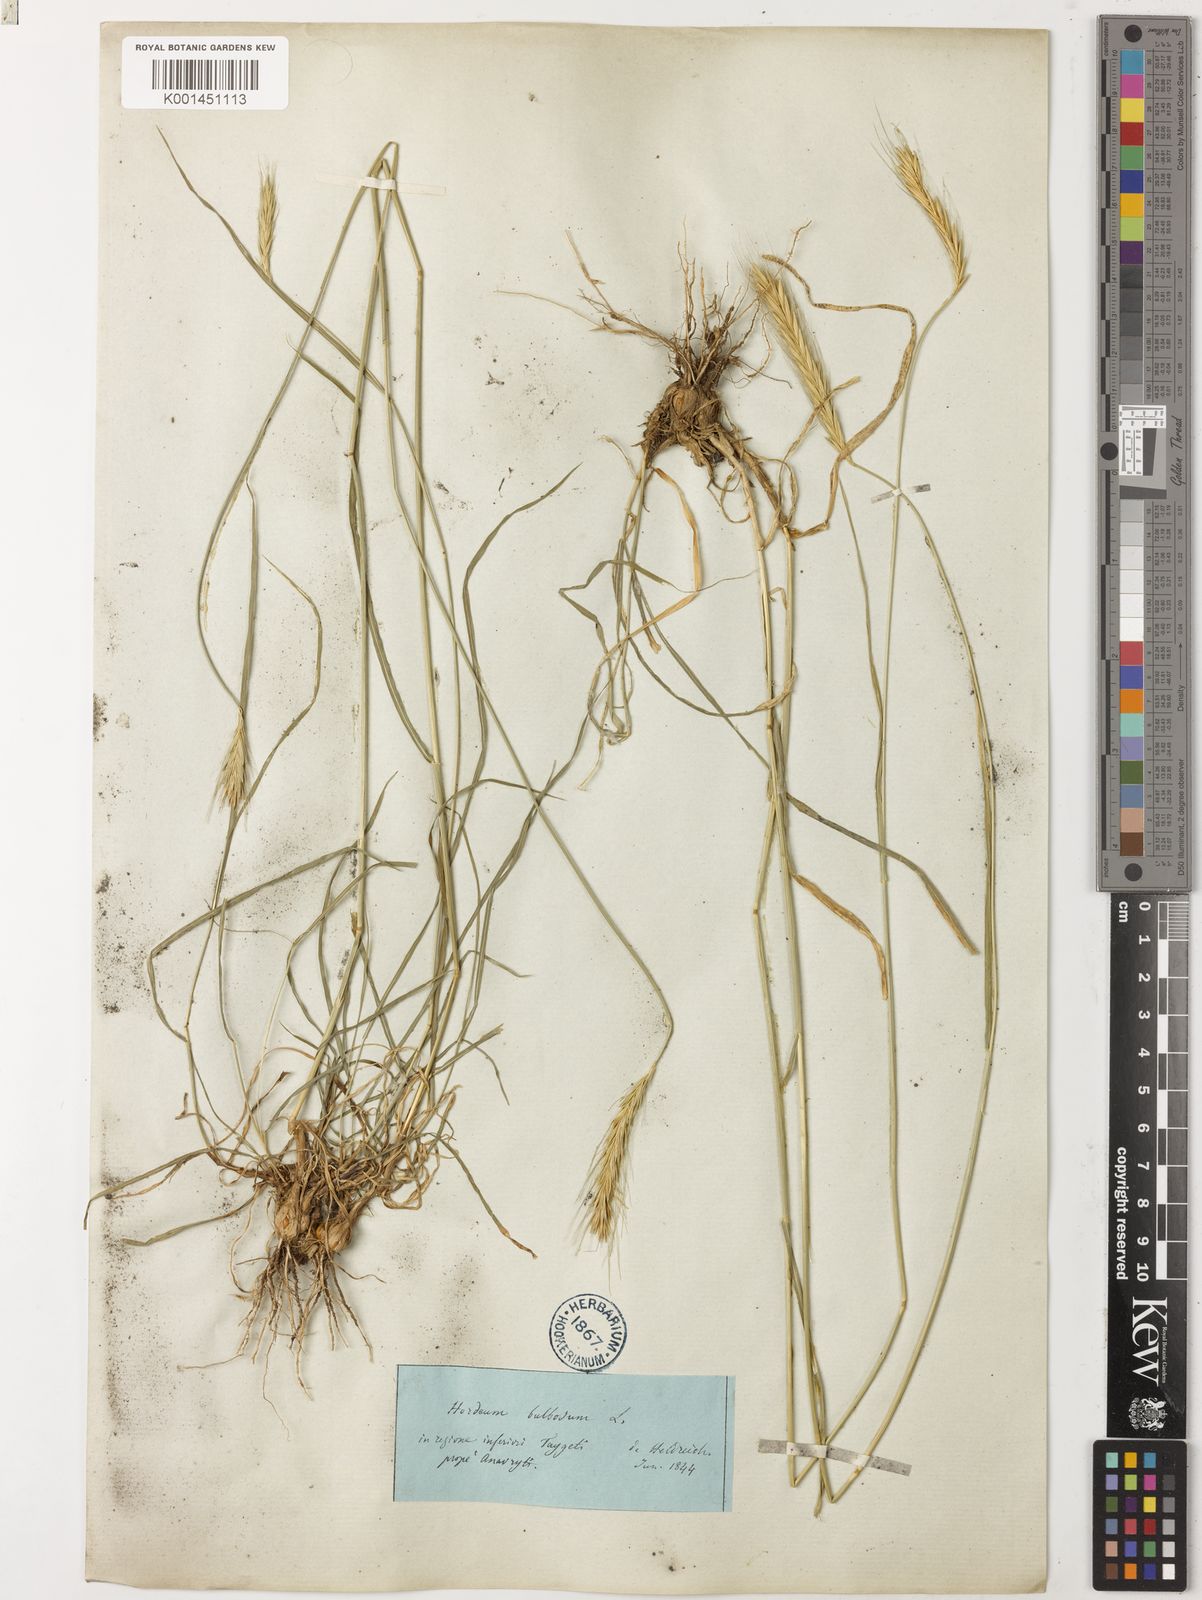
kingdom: Plantae
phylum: Tracheophyta
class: Liliopsida
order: Poales
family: Poaceae
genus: Hordeum
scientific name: Hordeum bulbosum
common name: Bulbous barley
